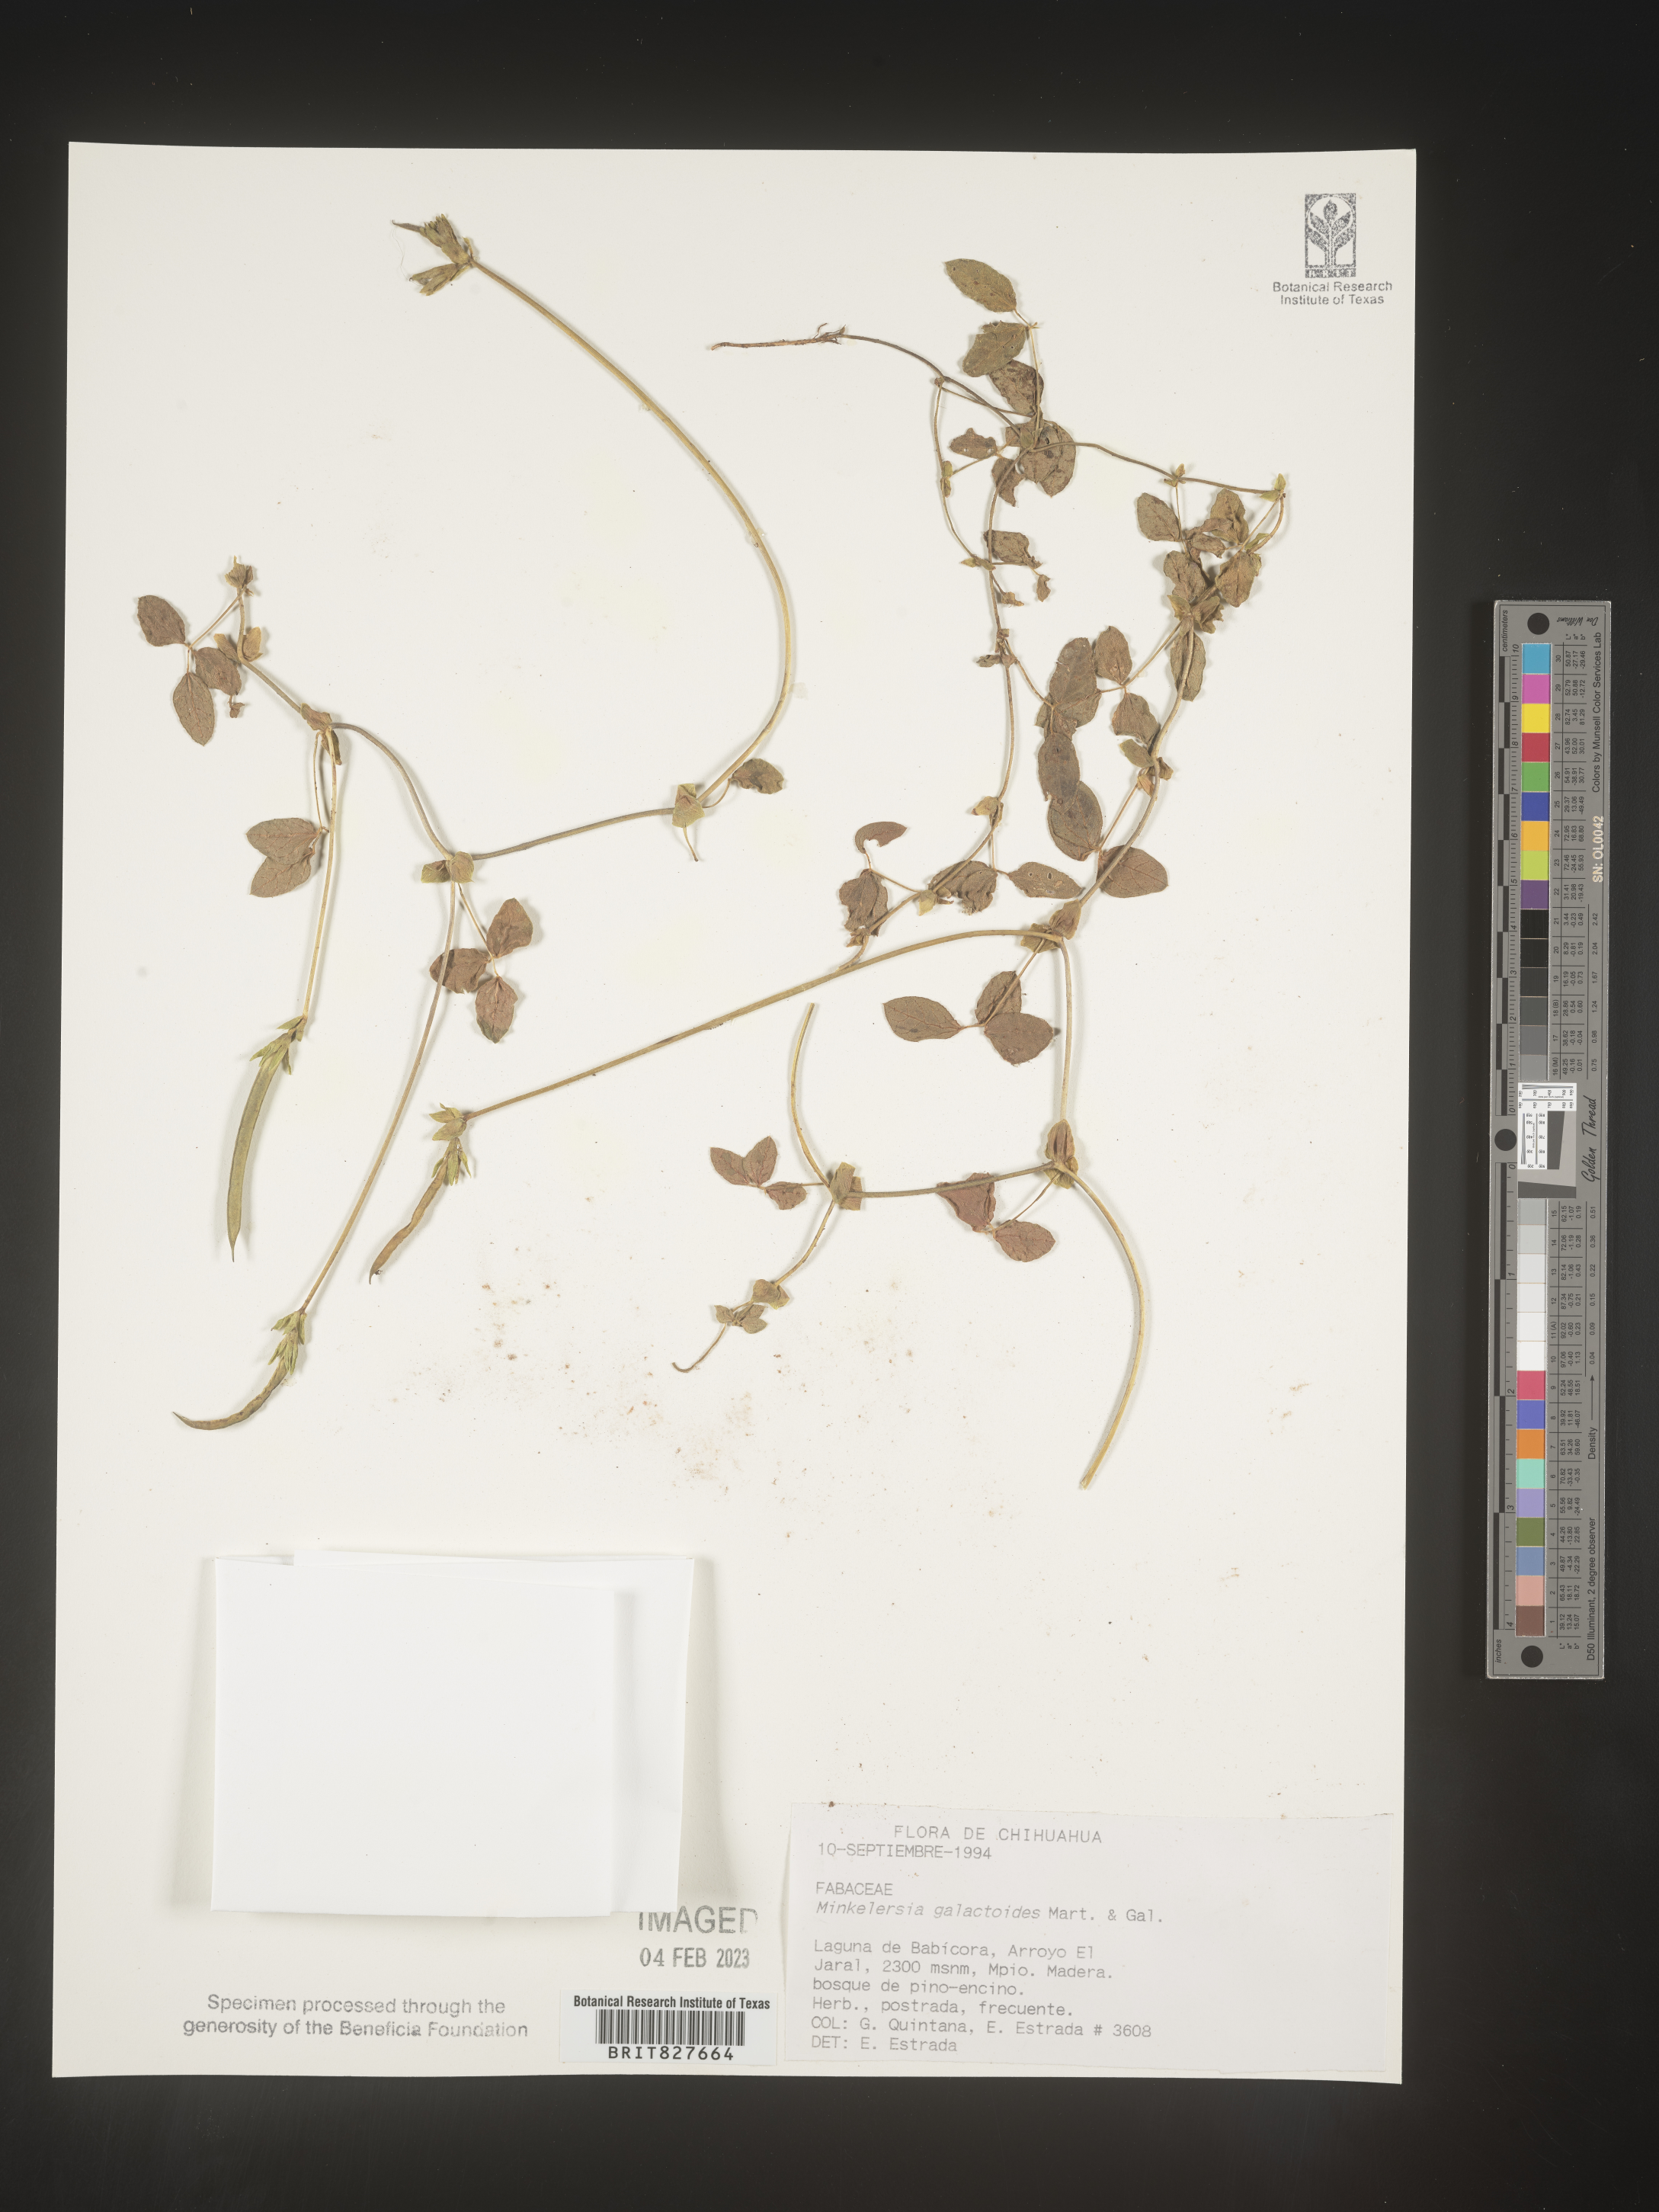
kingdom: Plantae
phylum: Tracheophyta
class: Magnoliopsida
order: Fabales
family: Fabaceae
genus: Phaseolus
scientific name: Phaseolus
